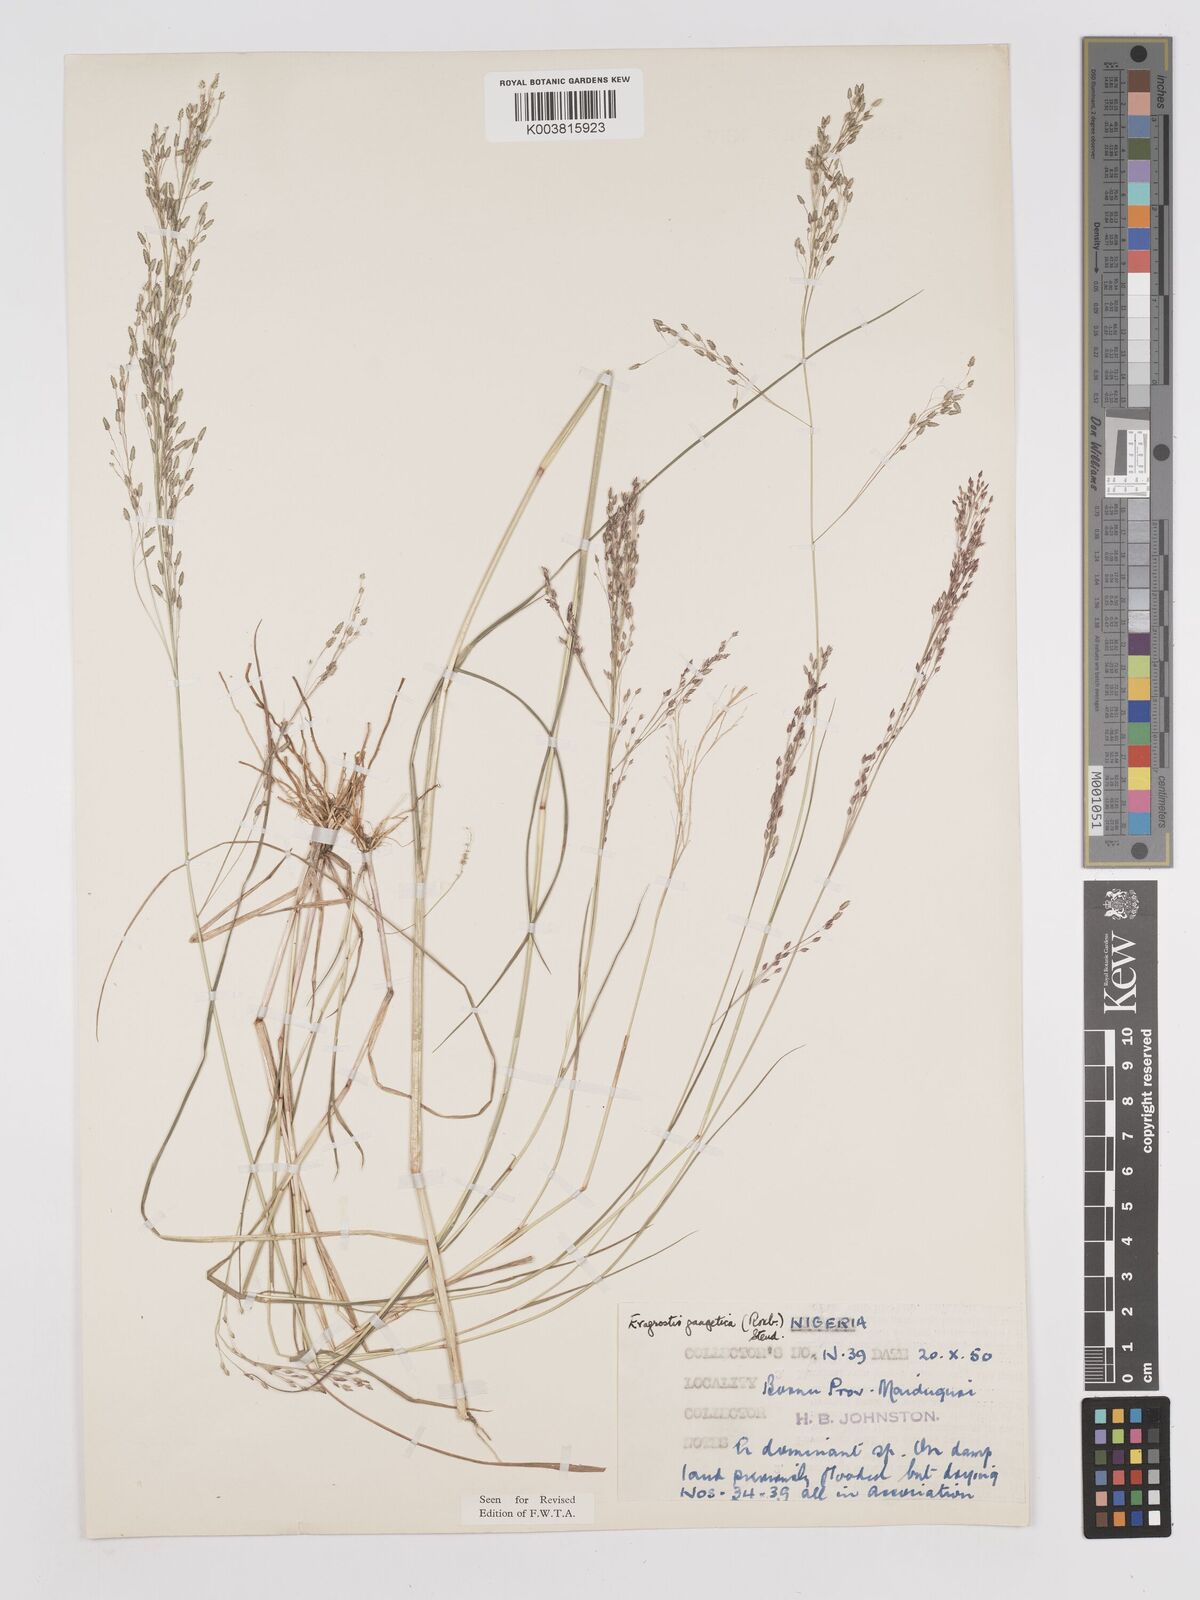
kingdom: Plantae
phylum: Tracheophyta
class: Liliopsida
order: Poales
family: Poaceae
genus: Eragrostis
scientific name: Eragrostis gangetica
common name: Slimflower lovegrass
